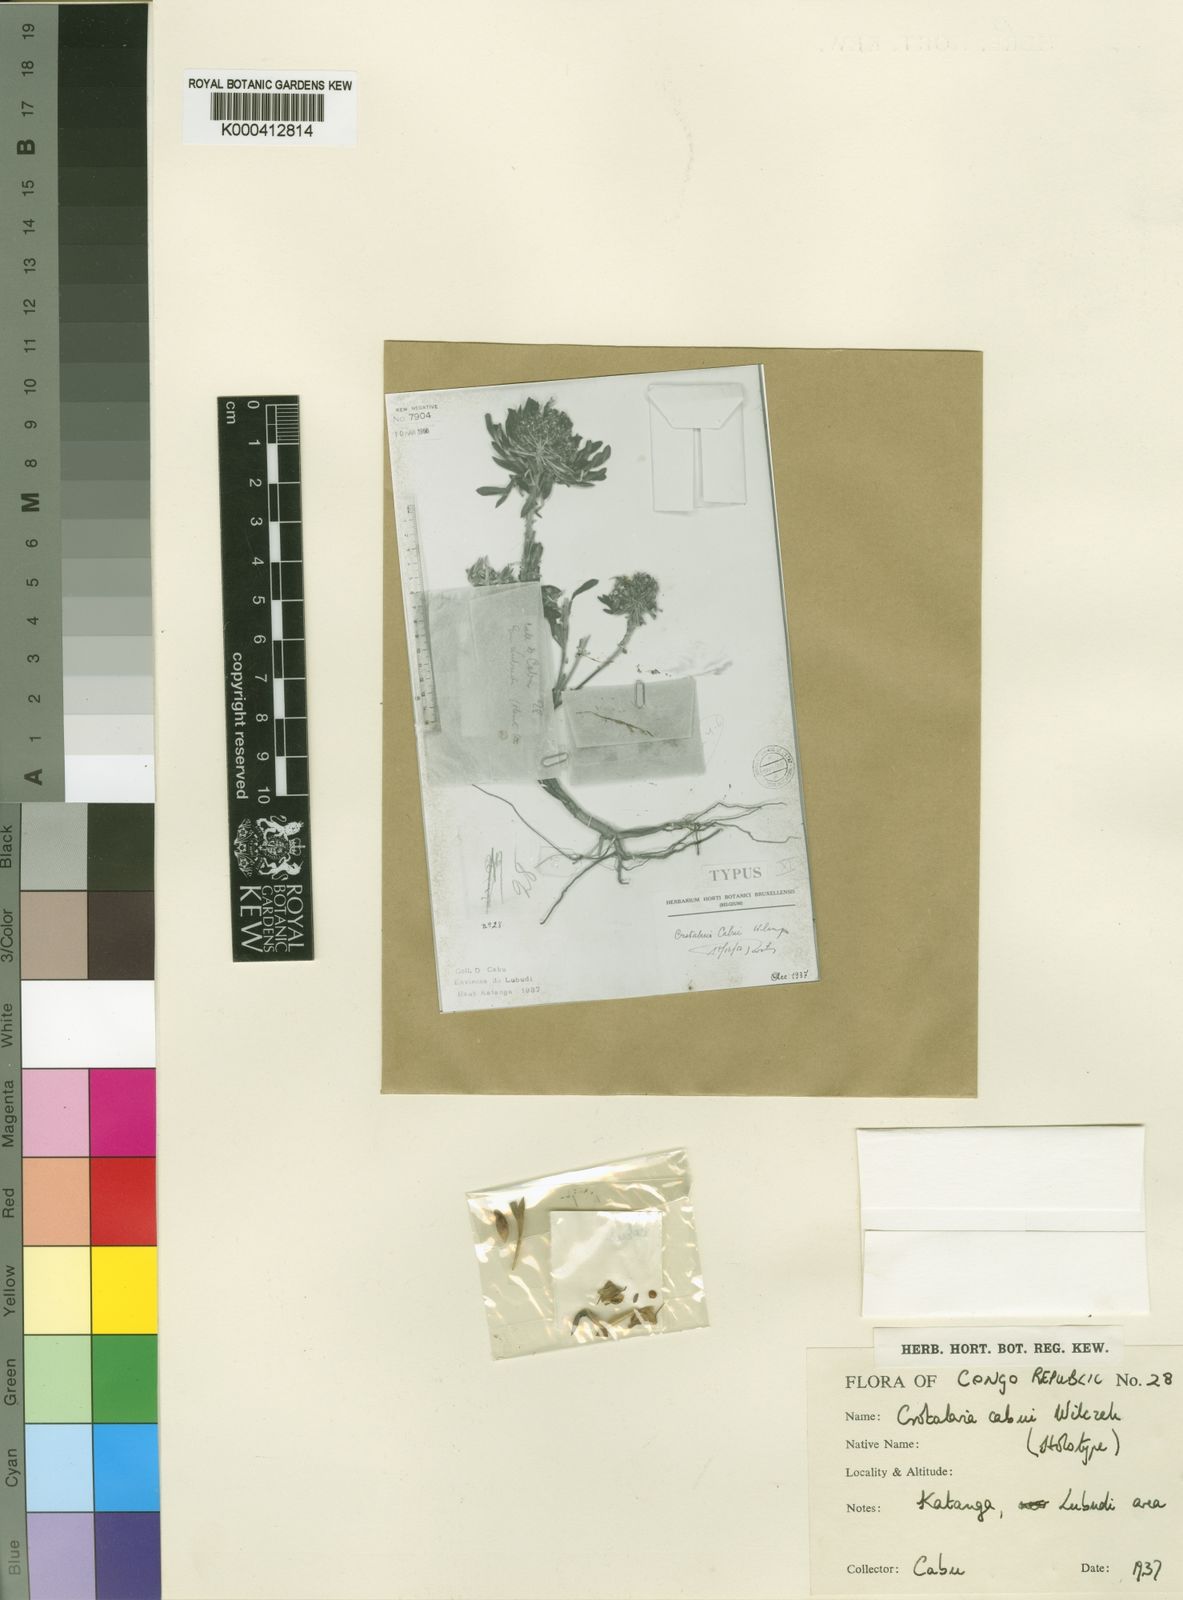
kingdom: Plantae
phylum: Tracheophyta
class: Magnoliopsida
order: Fabales
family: Fabaceae
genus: Crotalaria
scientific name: Crotalaria cabui
